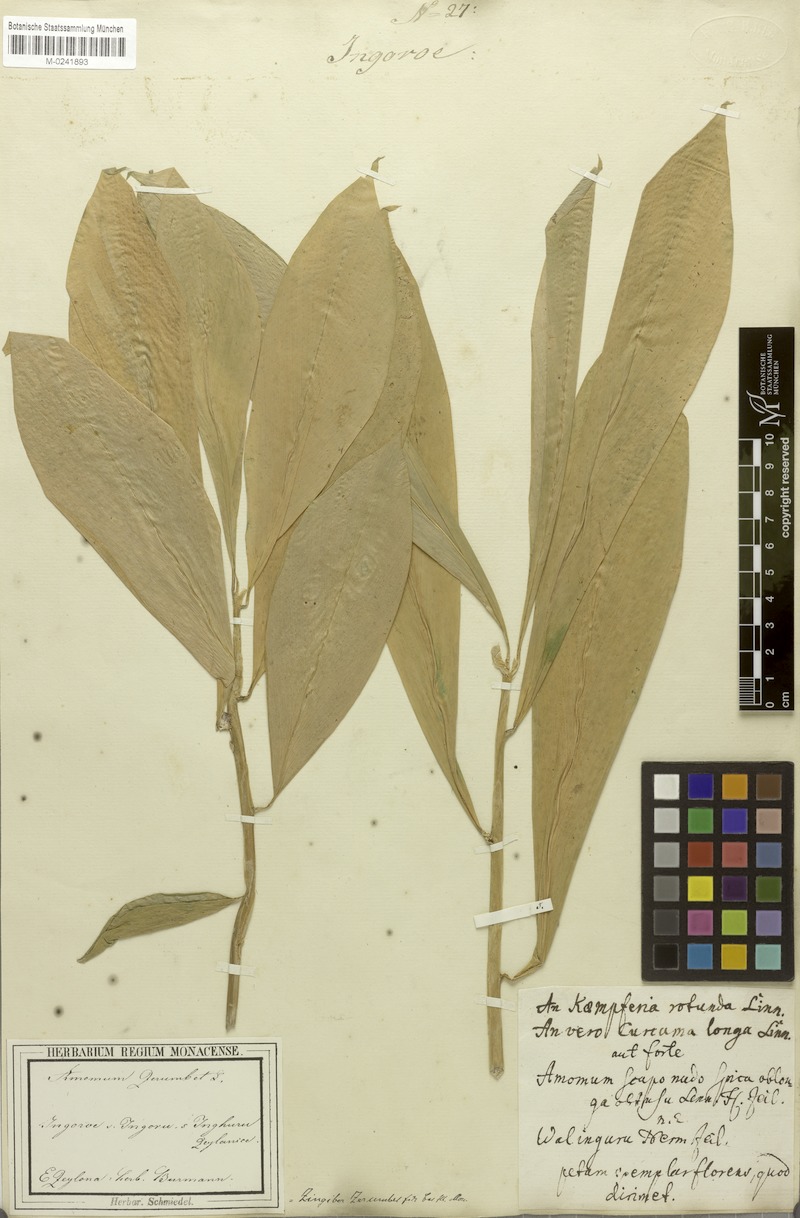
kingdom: Plantae
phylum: Tracheophyta
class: Liliopsida
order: Zingiberales
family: Zingiberaceae
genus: Zingiber
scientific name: Zingiber zerumbet
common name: Bitter ginger
